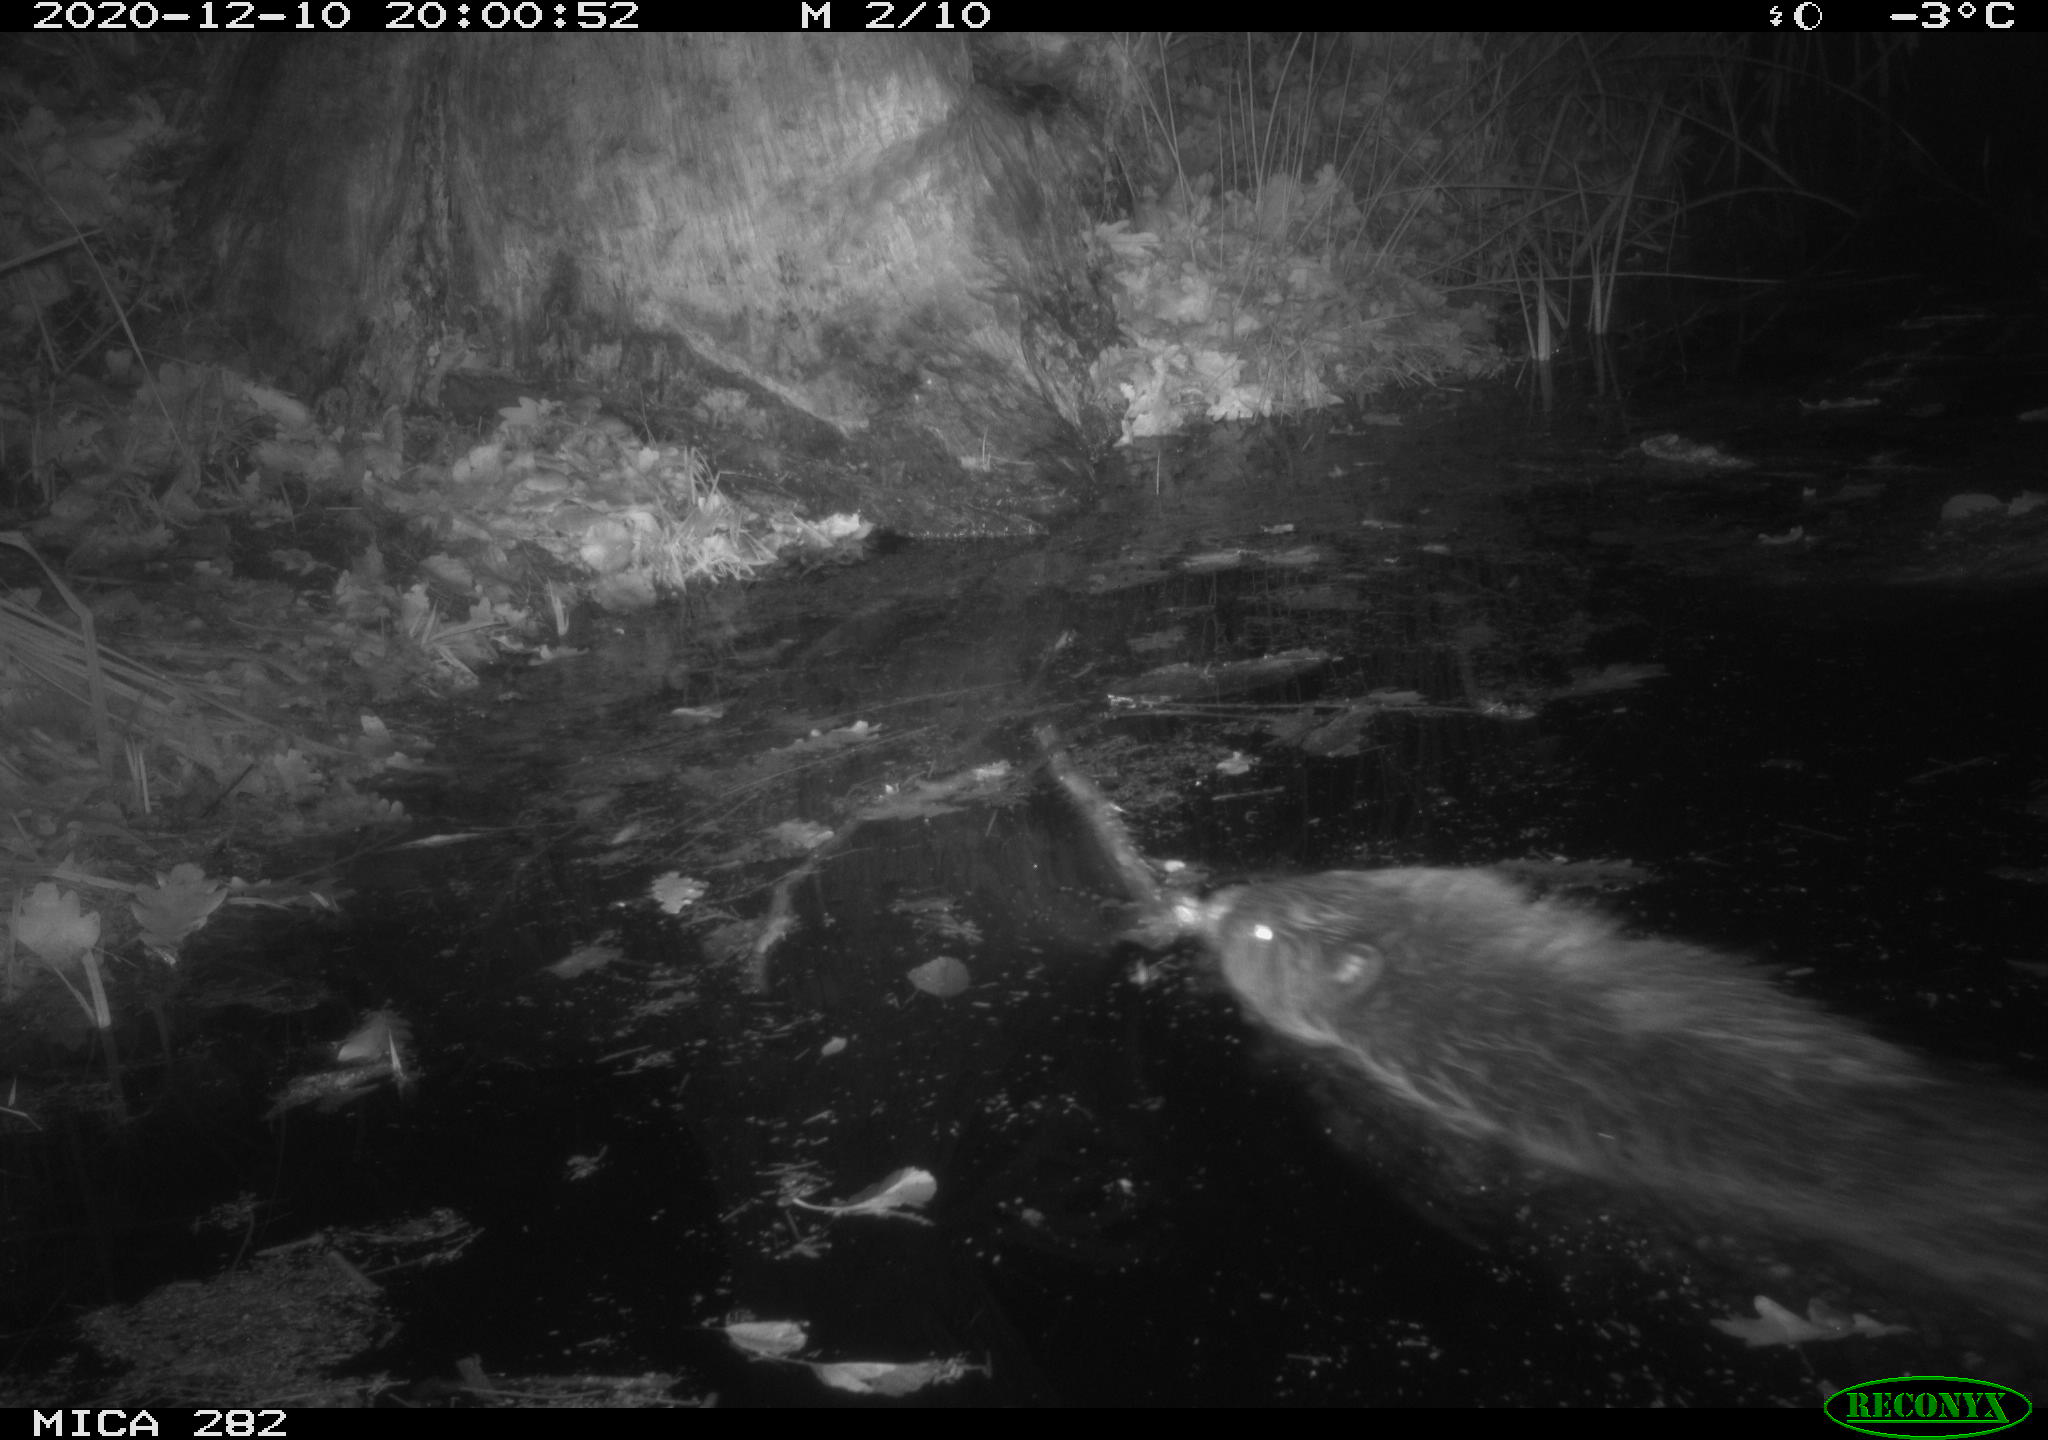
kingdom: Animalia
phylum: Chordata
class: Mammalia
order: Rodentia
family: Castoridae
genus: Castor
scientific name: Castor fiber
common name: Eurasian beaver
